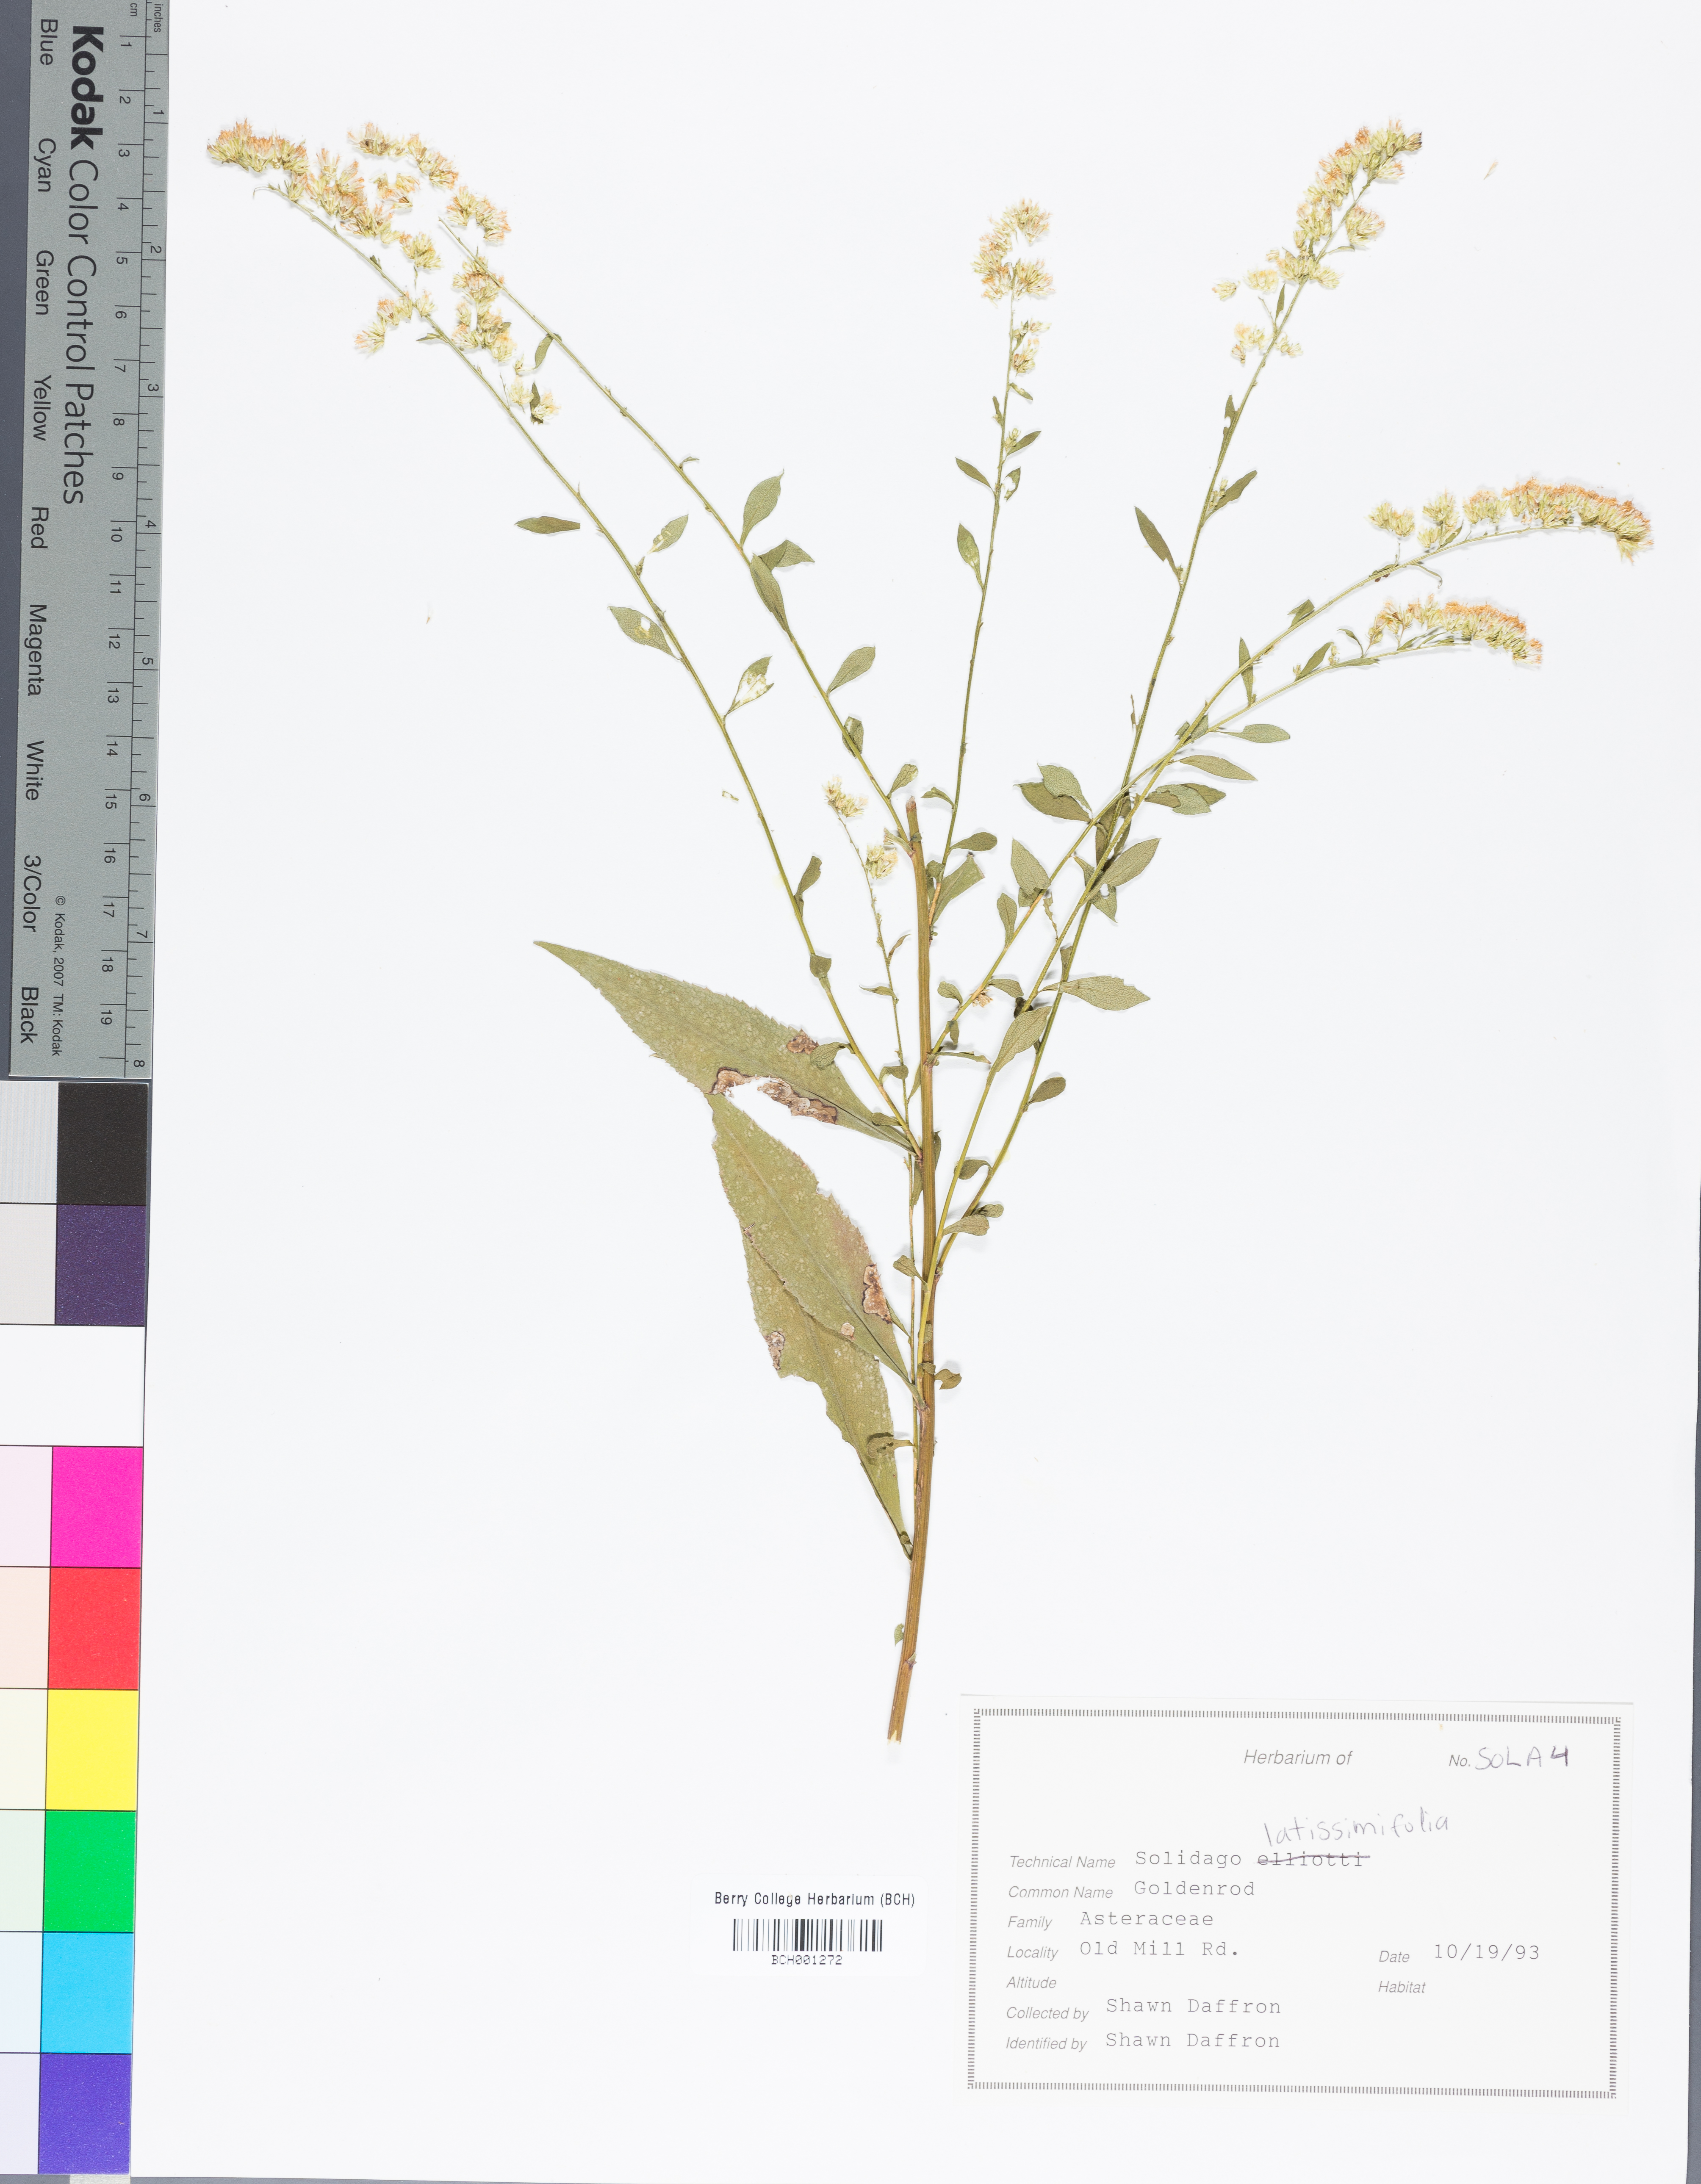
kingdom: Plantae
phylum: Tracheophyta
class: Magnoliopsida
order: Asterales
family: Asteraceae
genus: Solidago
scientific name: Solidago latissimifolia
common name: Elliott's goldenrod
